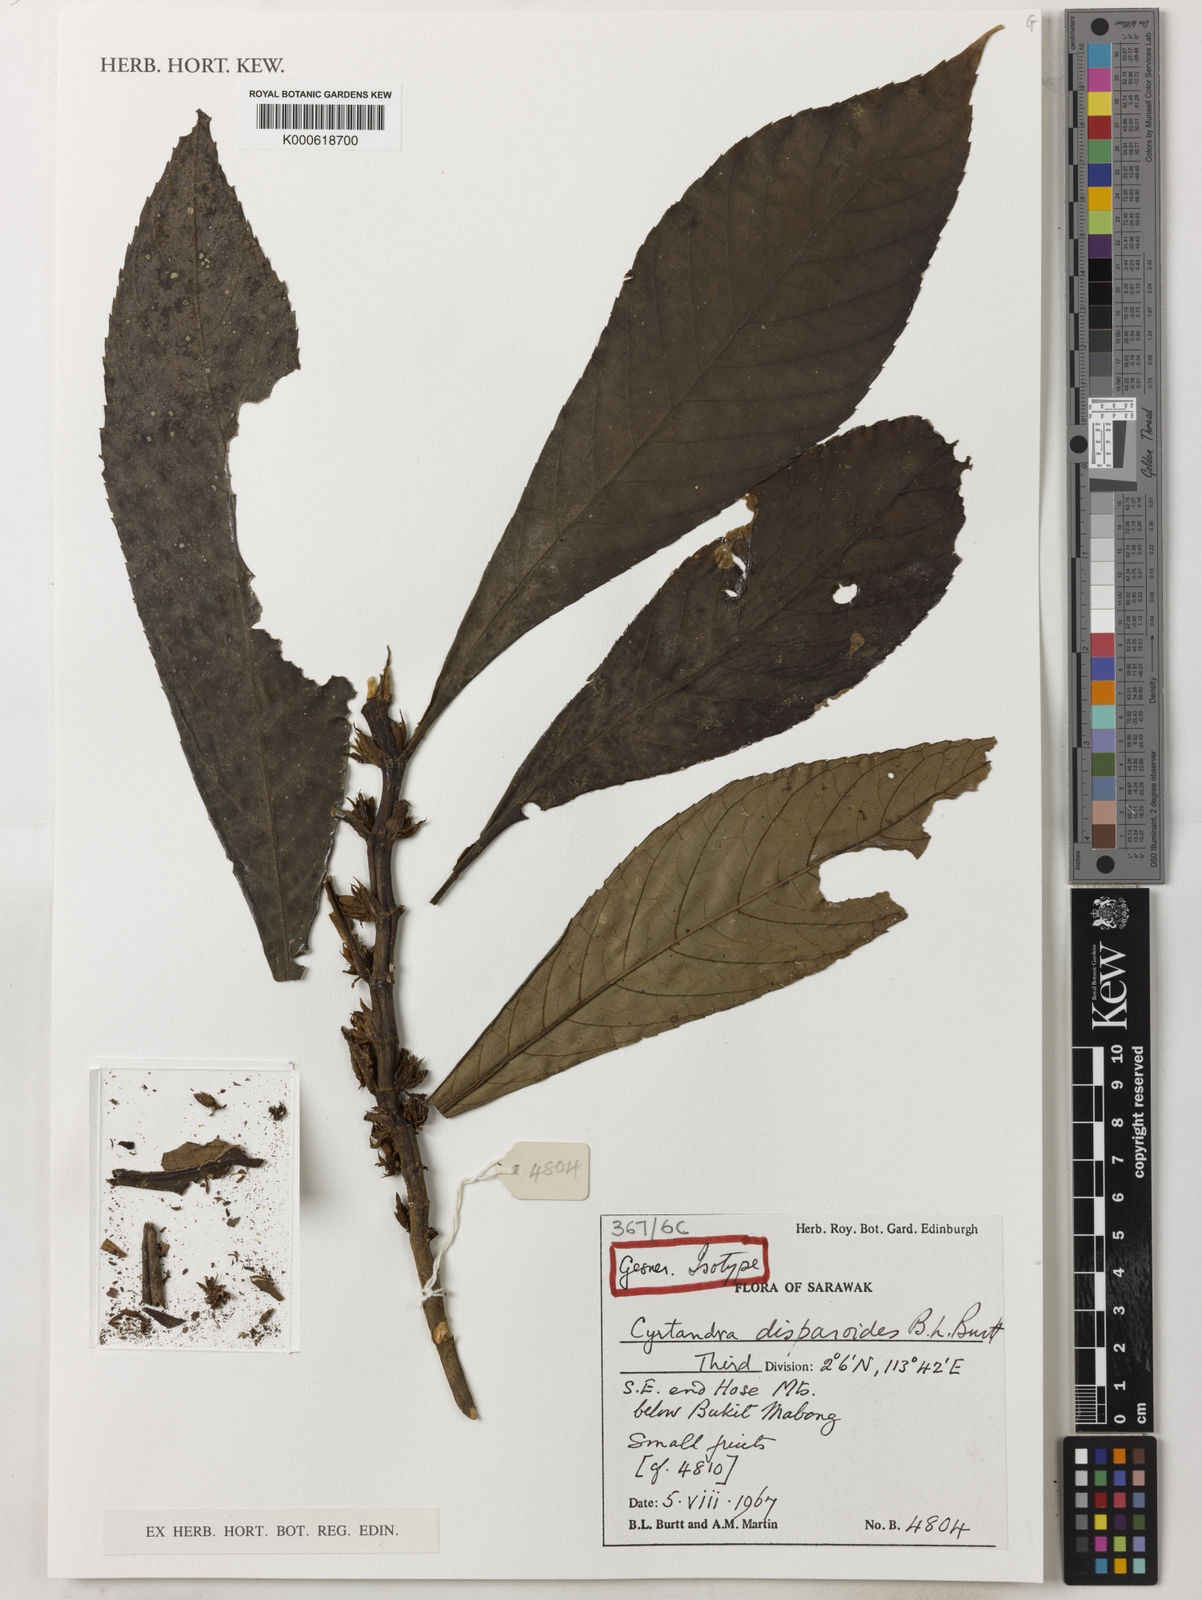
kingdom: Plantae
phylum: Tracheophyta
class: Magnoliopsida
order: Lamiales
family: Gesneriaceae
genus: Cyrtandra
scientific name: Cyrtandra disparoides
